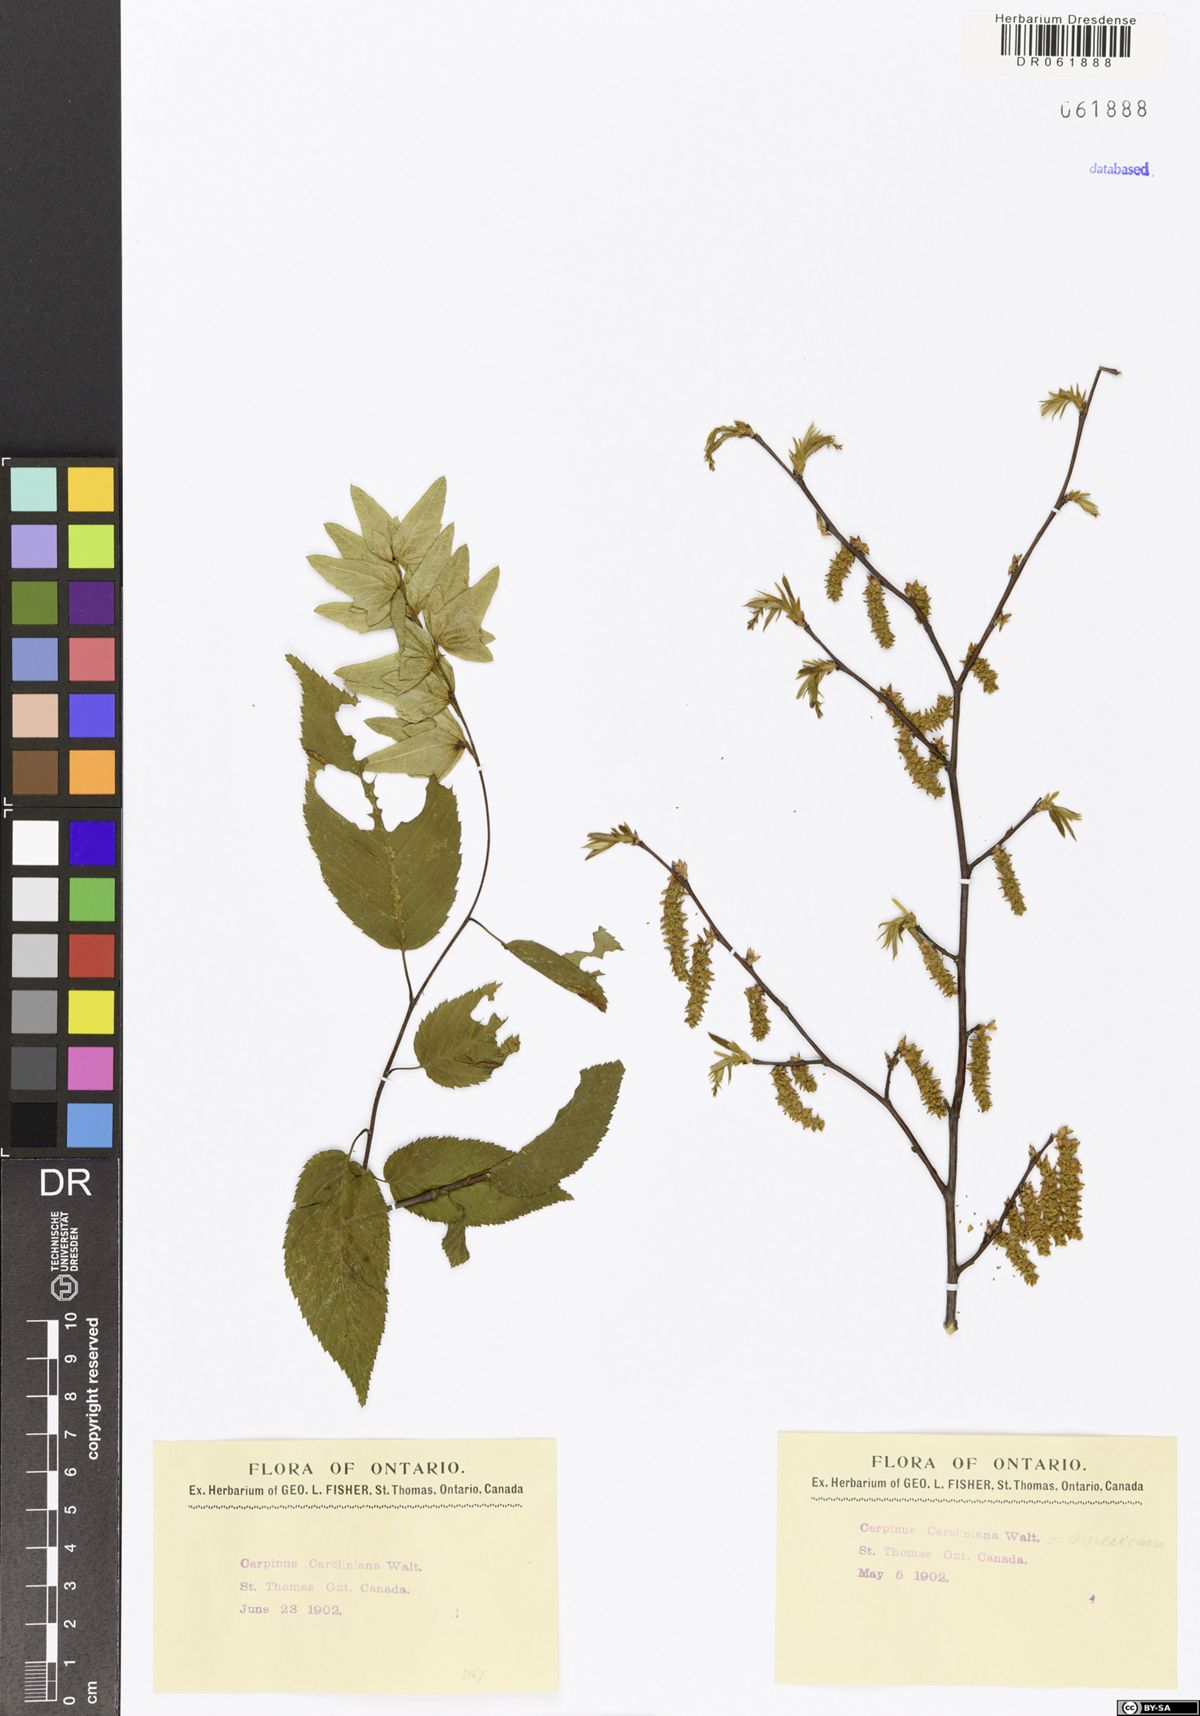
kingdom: Plantae
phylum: Tracheophyta
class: Magnoliopsida
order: Fagales
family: Betulaceae
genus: Carpinus
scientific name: Carpinus caroliniana
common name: American hornbeam
